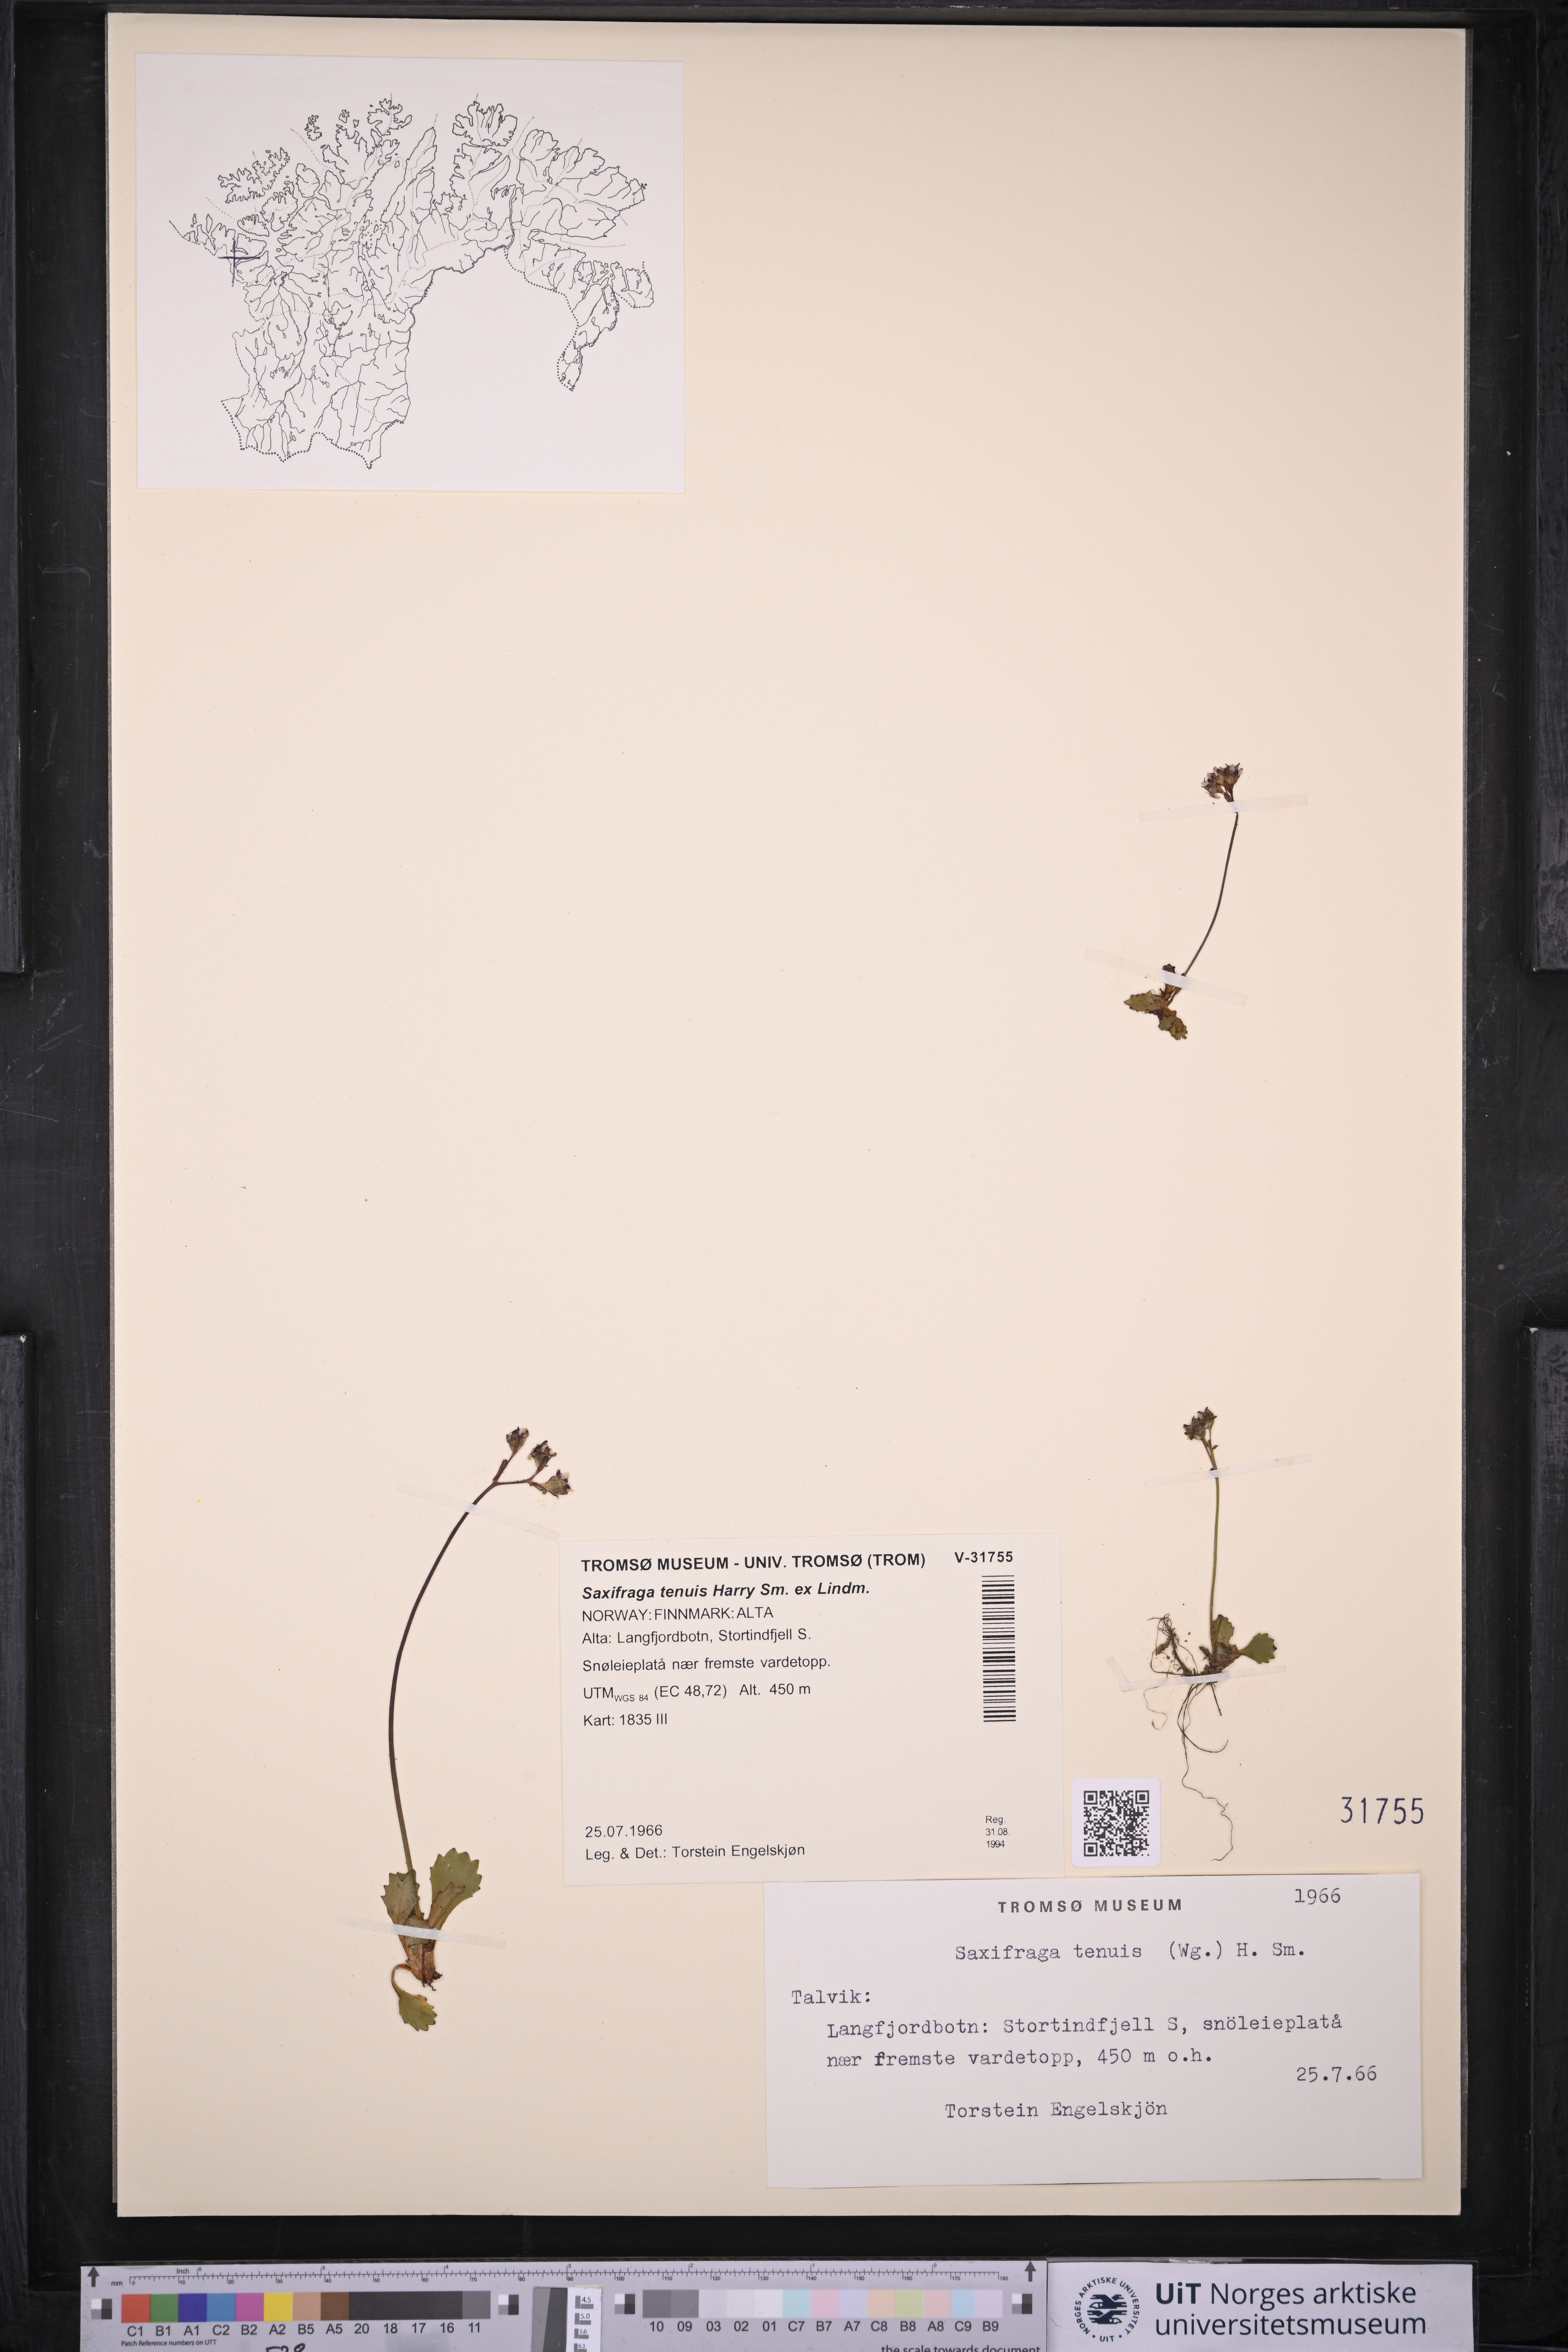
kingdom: Plantae
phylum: Tracheophyta
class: Magnoliopsida
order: Saxifragales
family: Saxifragaceae
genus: Micranthes
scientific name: Micranthes tenuis
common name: Ottertail pass saxifrage
